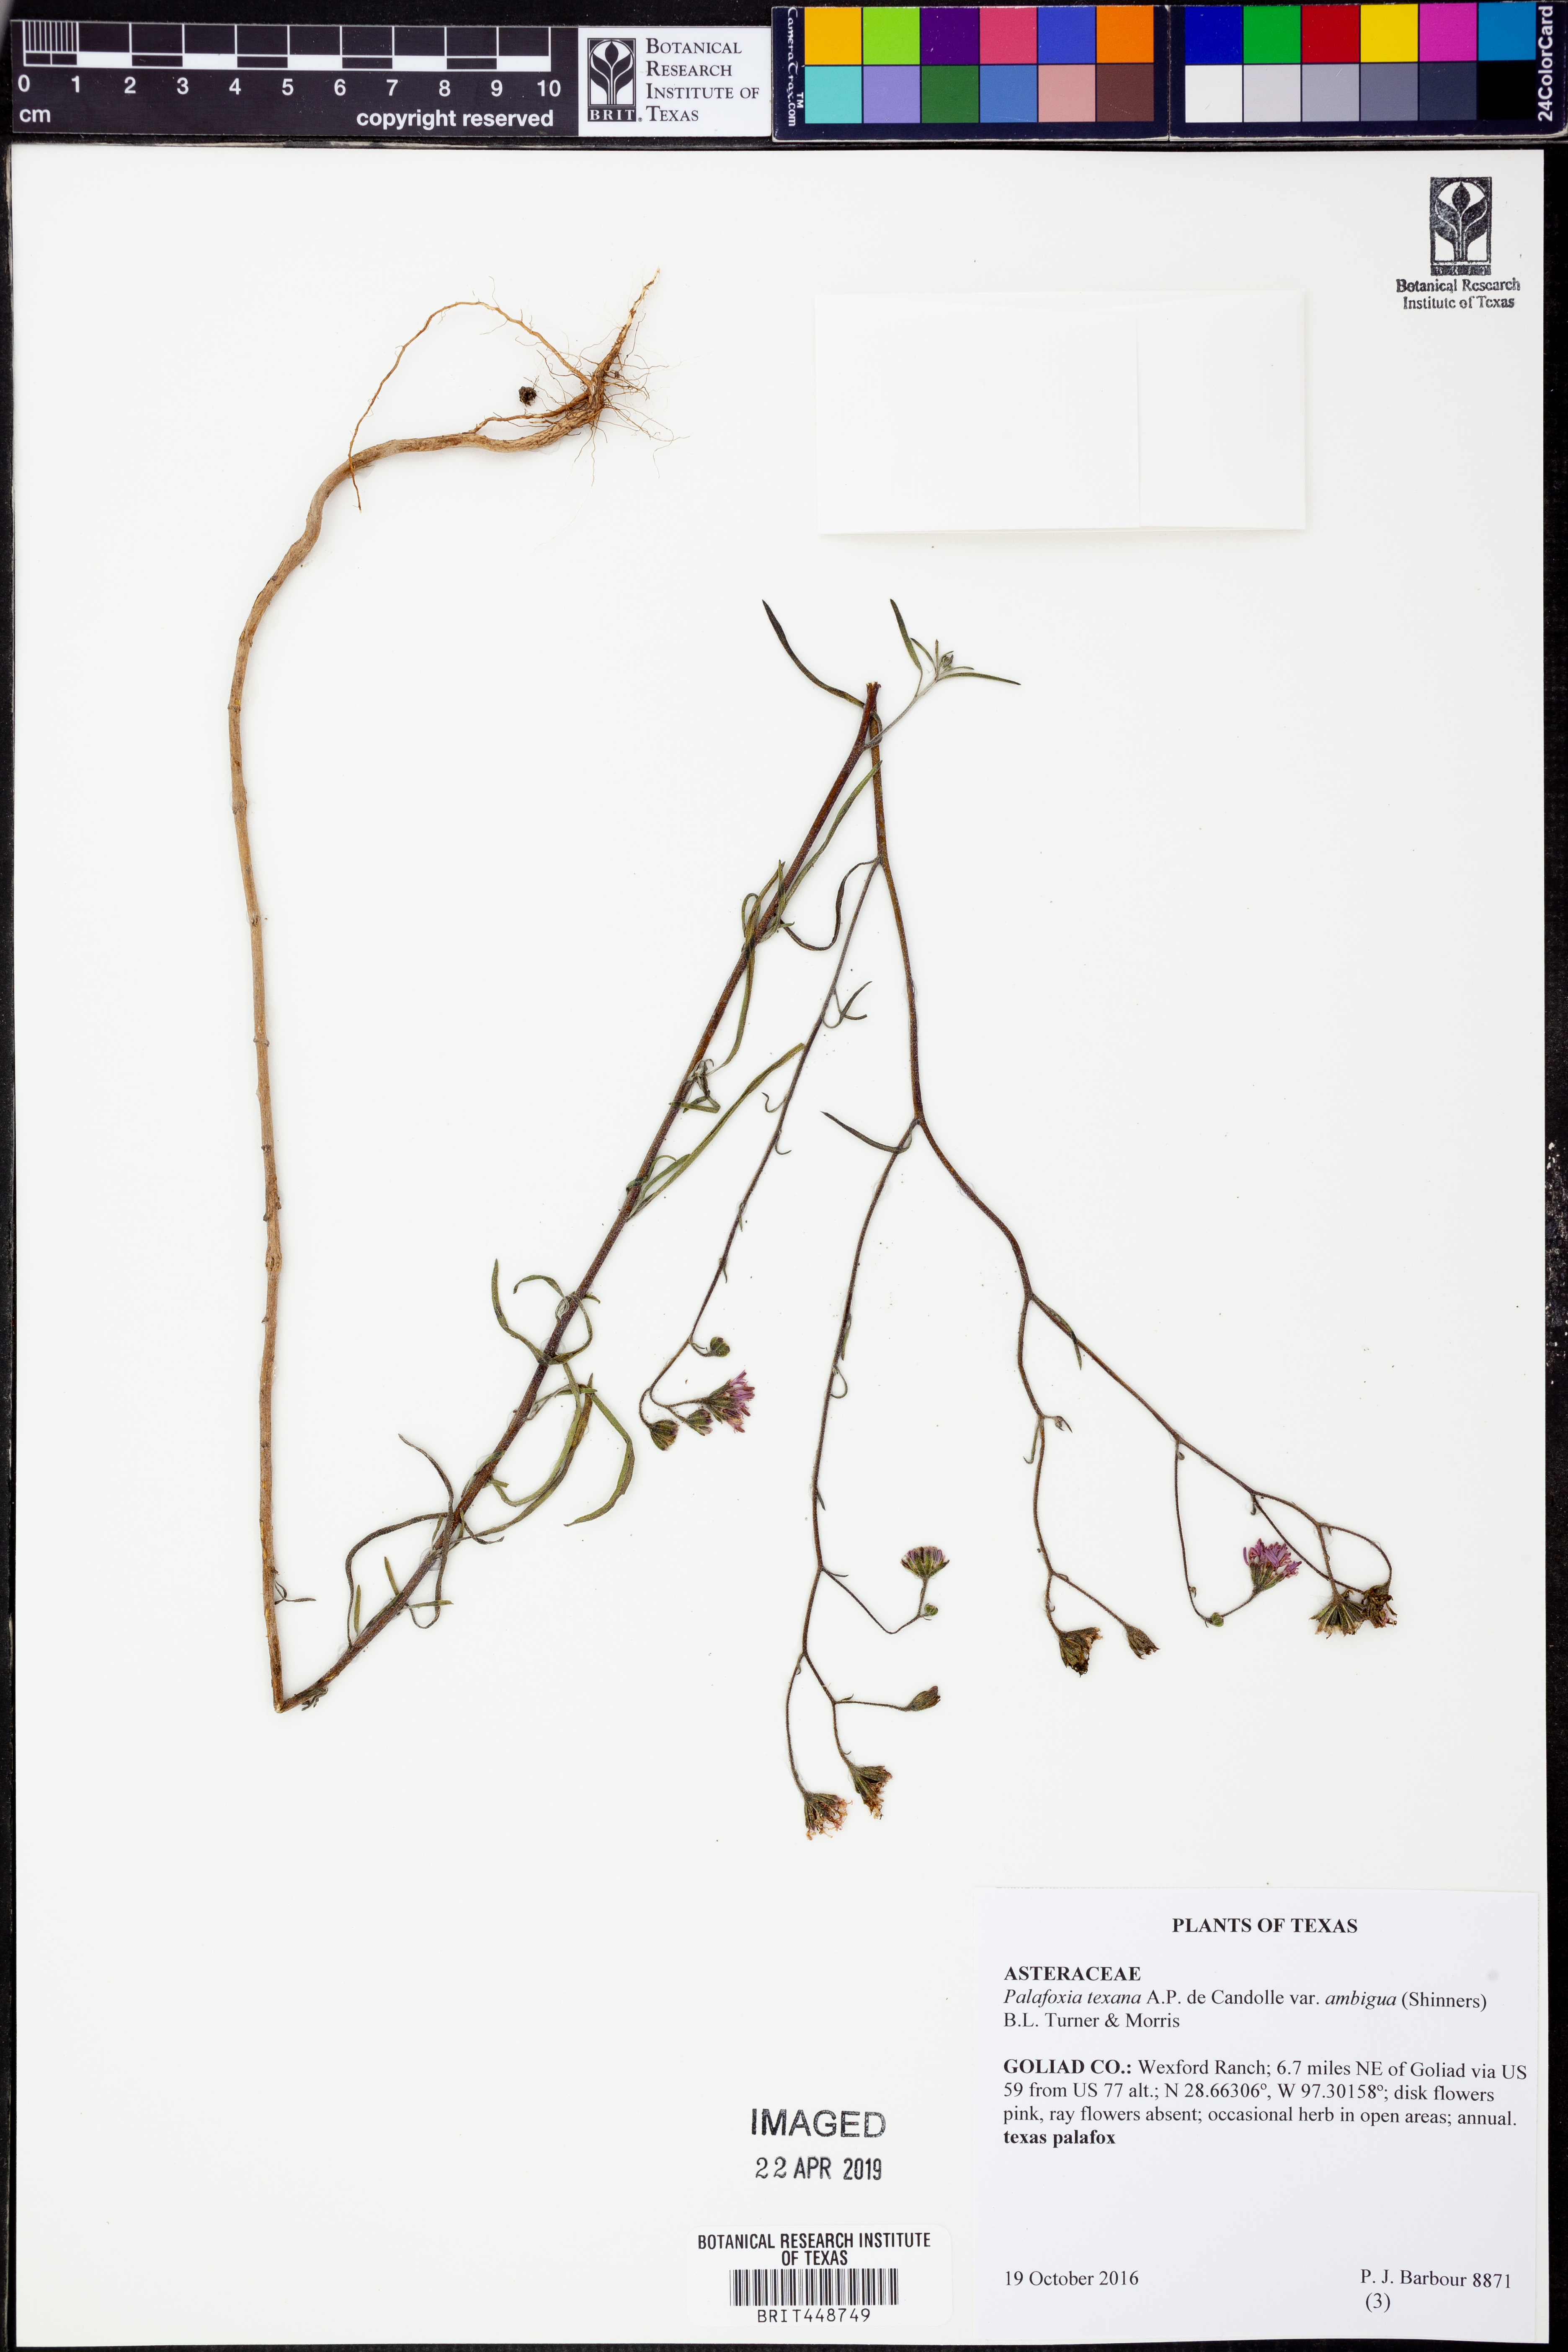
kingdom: Plantae
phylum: Tracheophyta
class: Magnoliopsida
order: Asterales
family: Asteraceae
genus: Palafoxia
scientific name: Palafoxia texana
